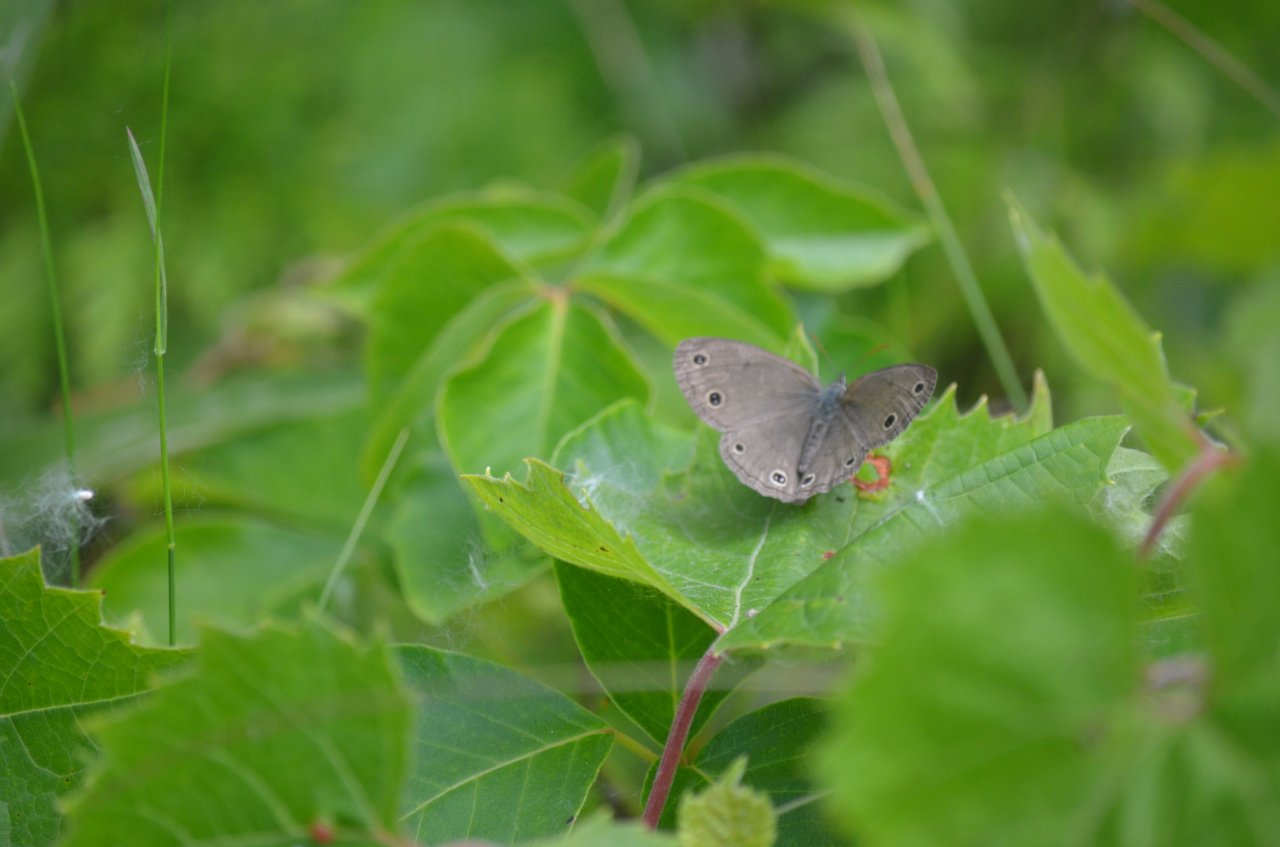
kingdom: Animalia
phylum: Arthropoda
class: Insecta
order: Lepidoptera
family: Nymphalidae
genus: Euptychia
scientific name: Euptychia cymela
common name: Little Wood Satyr
